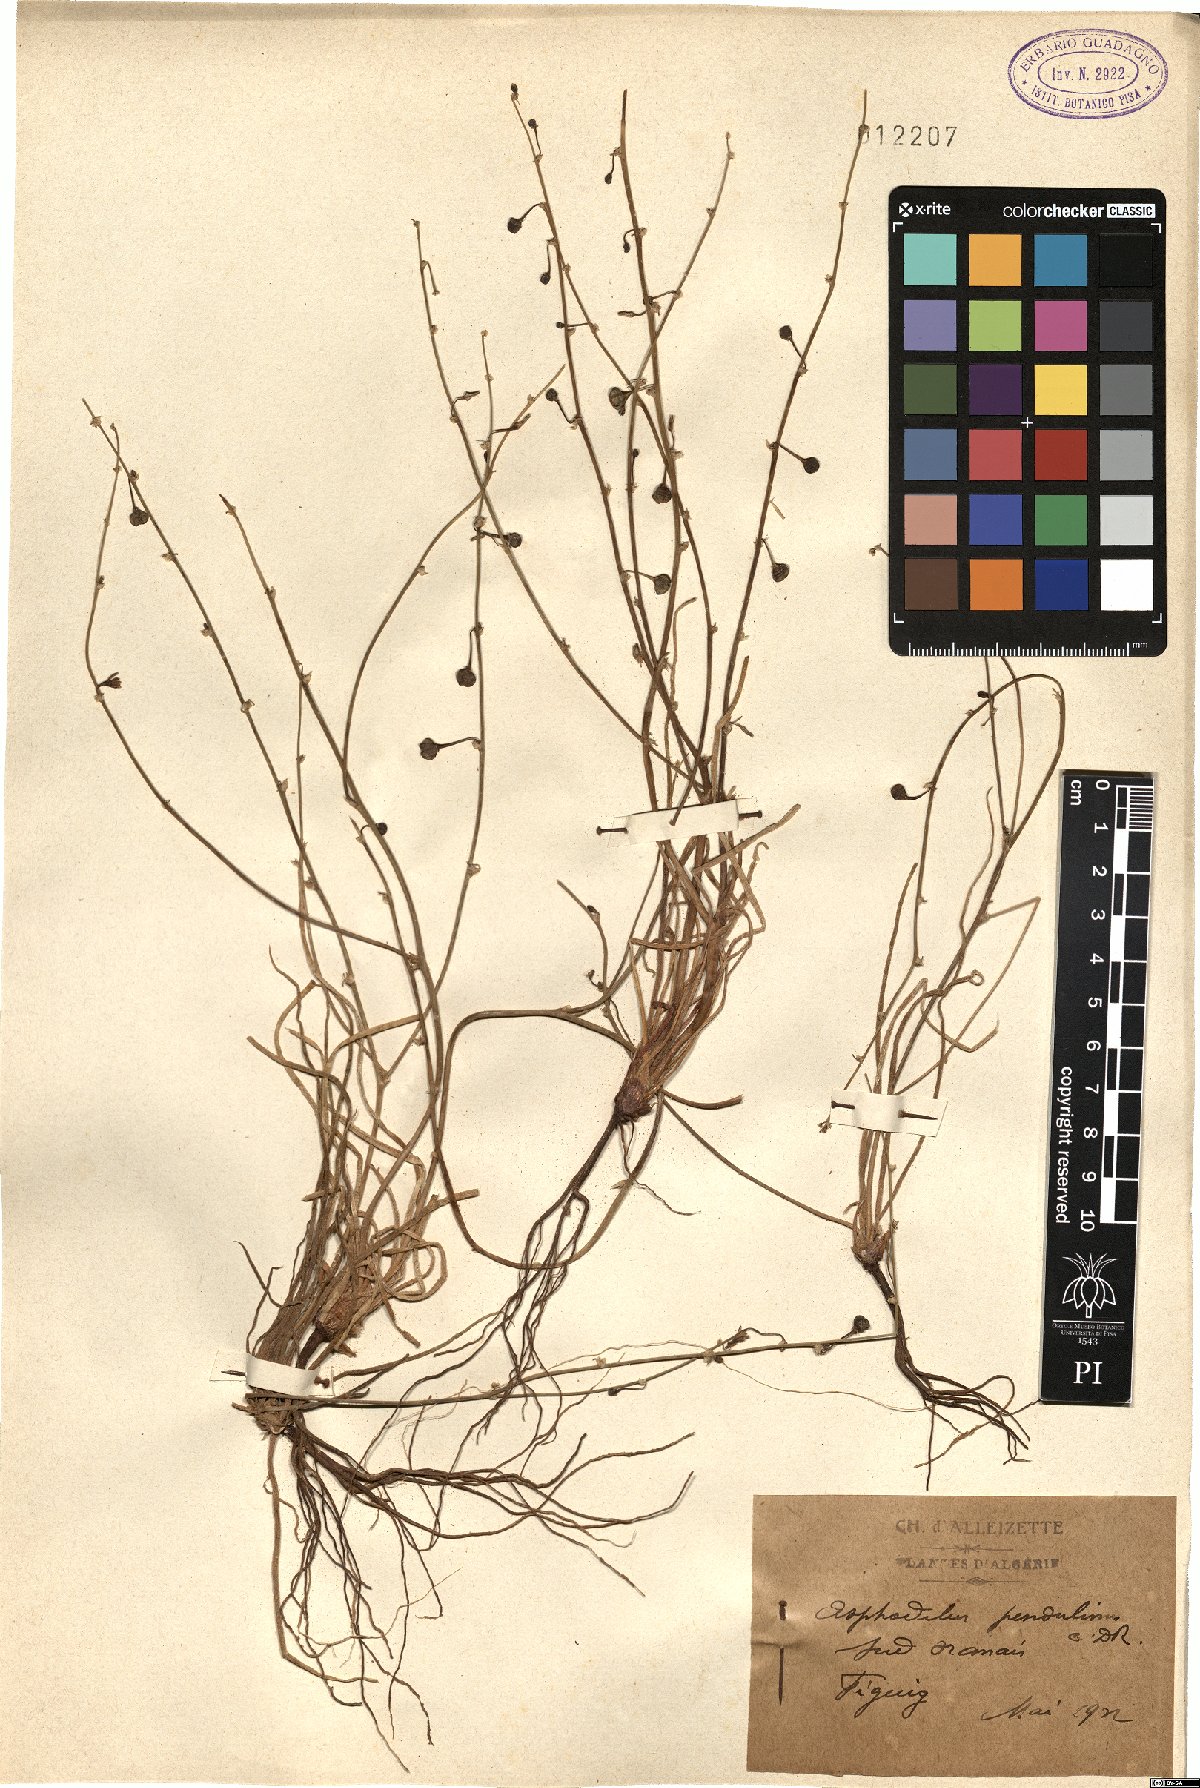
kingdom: Plantae
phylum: Tracheophyta
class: Liliopsida
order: Asparagales
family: Asphodelaceae
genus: Asphodelus
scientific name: Asphodelus refractus
